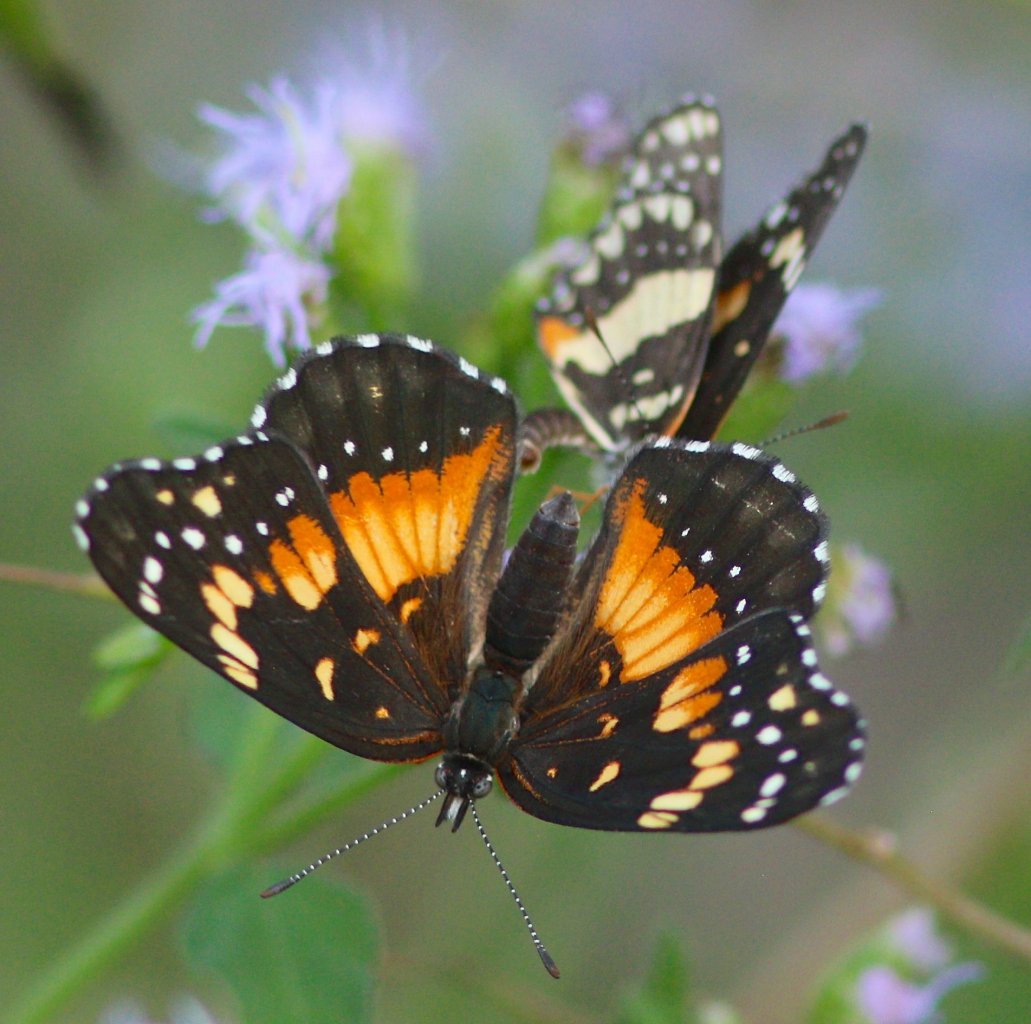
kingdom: Animalia
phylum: Arthropoda
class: Insecta
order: Lepidoptera
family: Nymphalidae
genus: Chlosyne
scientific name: Chlosyne lacinia
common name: Bordered Patch
